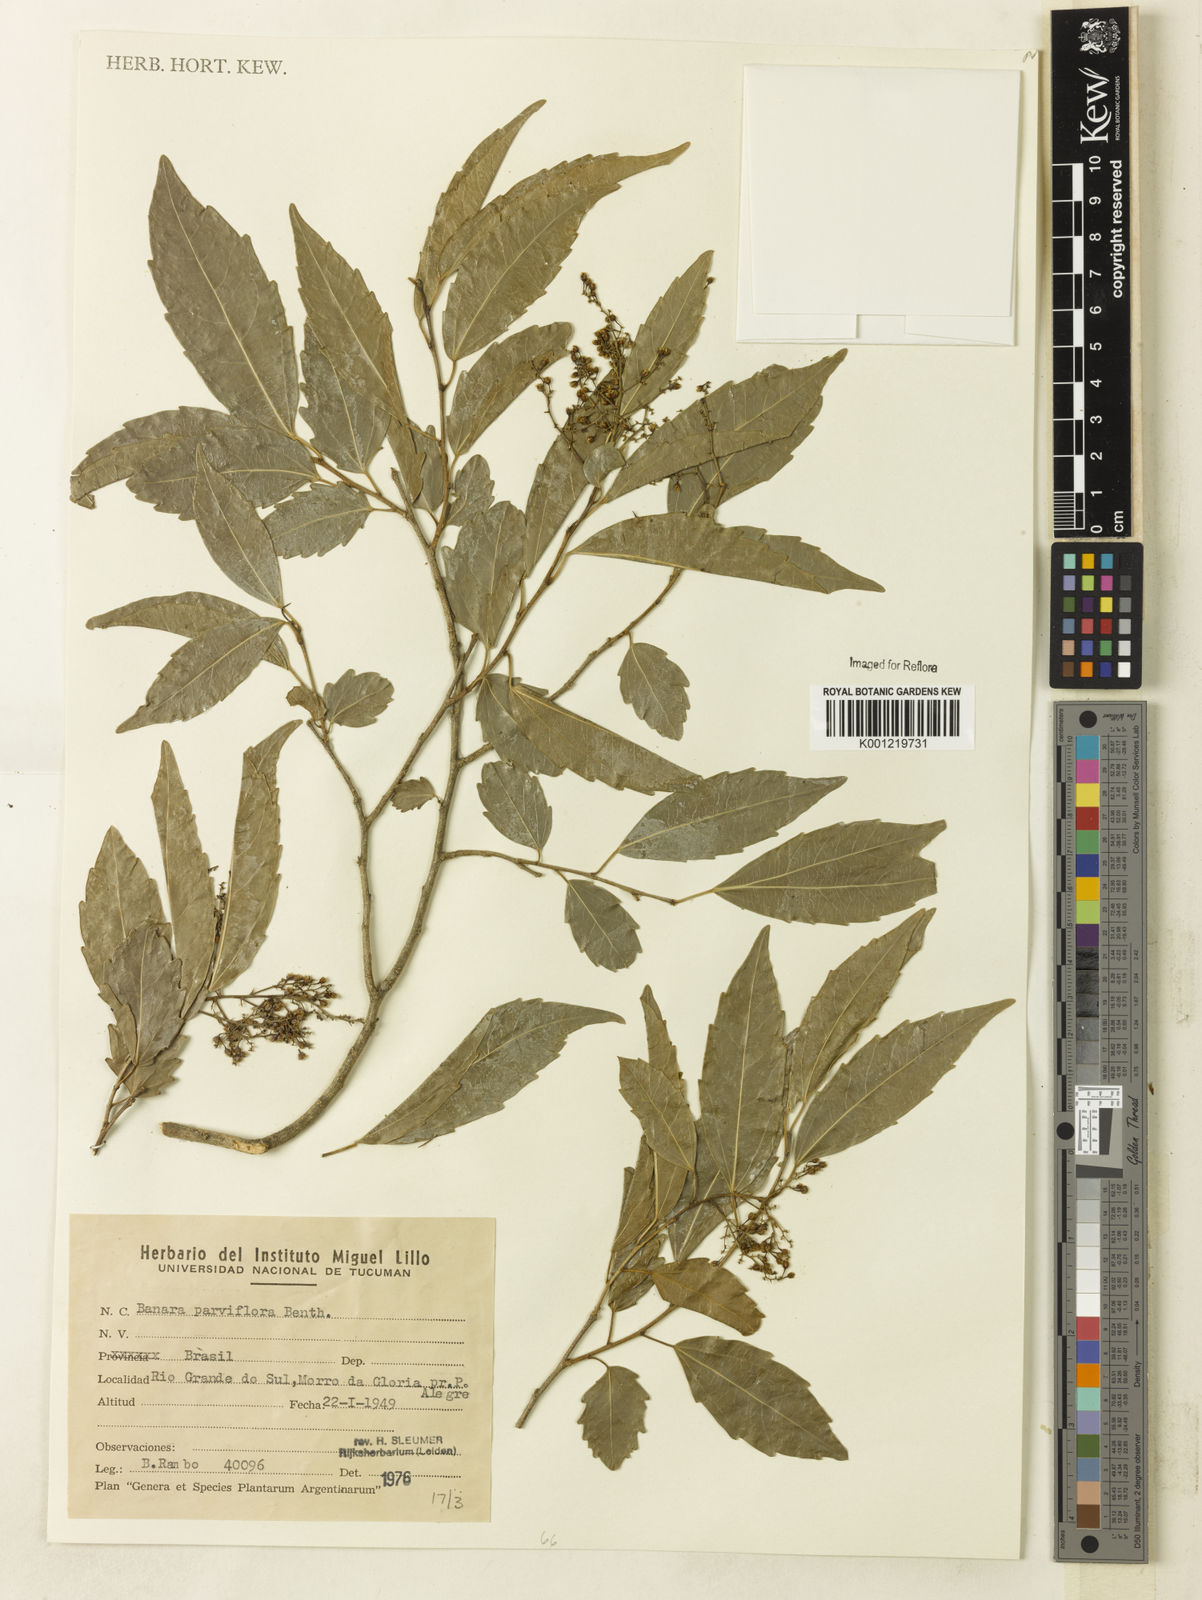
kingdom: Plantae
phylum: Tracheophyta
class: Magnoliopsida
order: Malpighiales
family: Salicaceae
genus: Banara
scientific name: Banara parviflora
